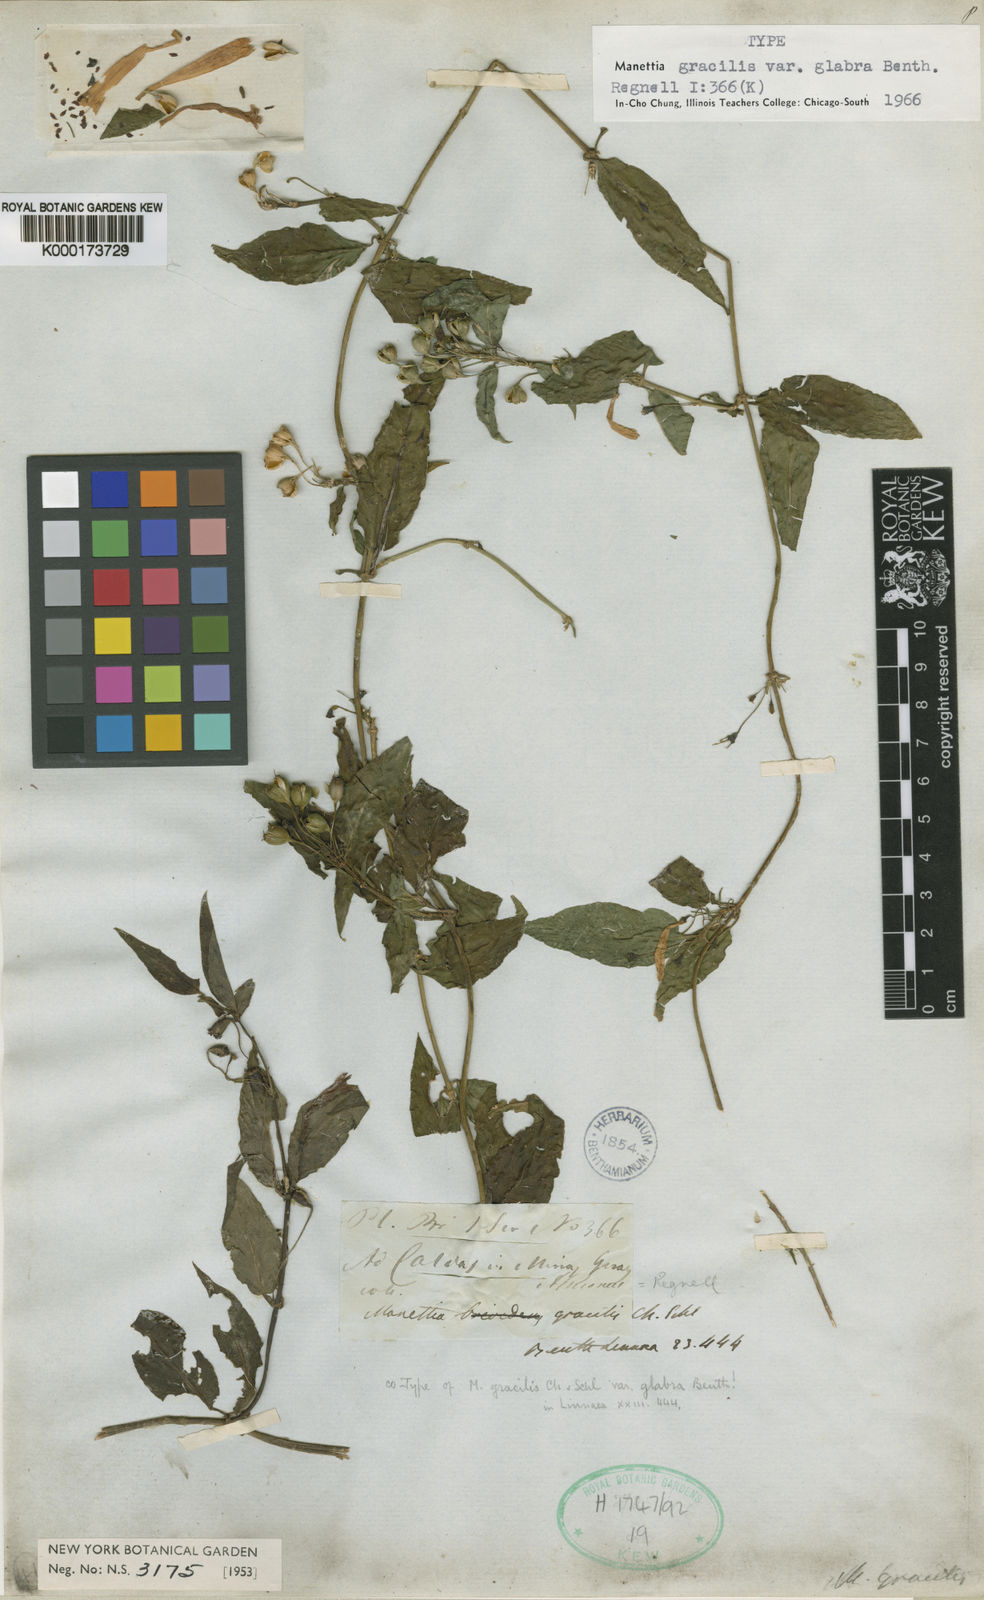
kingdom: Plantae
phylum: Tracheophyta
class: Magnoliopsida
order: Gentianales
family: Rubiaceae
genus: Manettia
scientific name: Manettia gracilis
